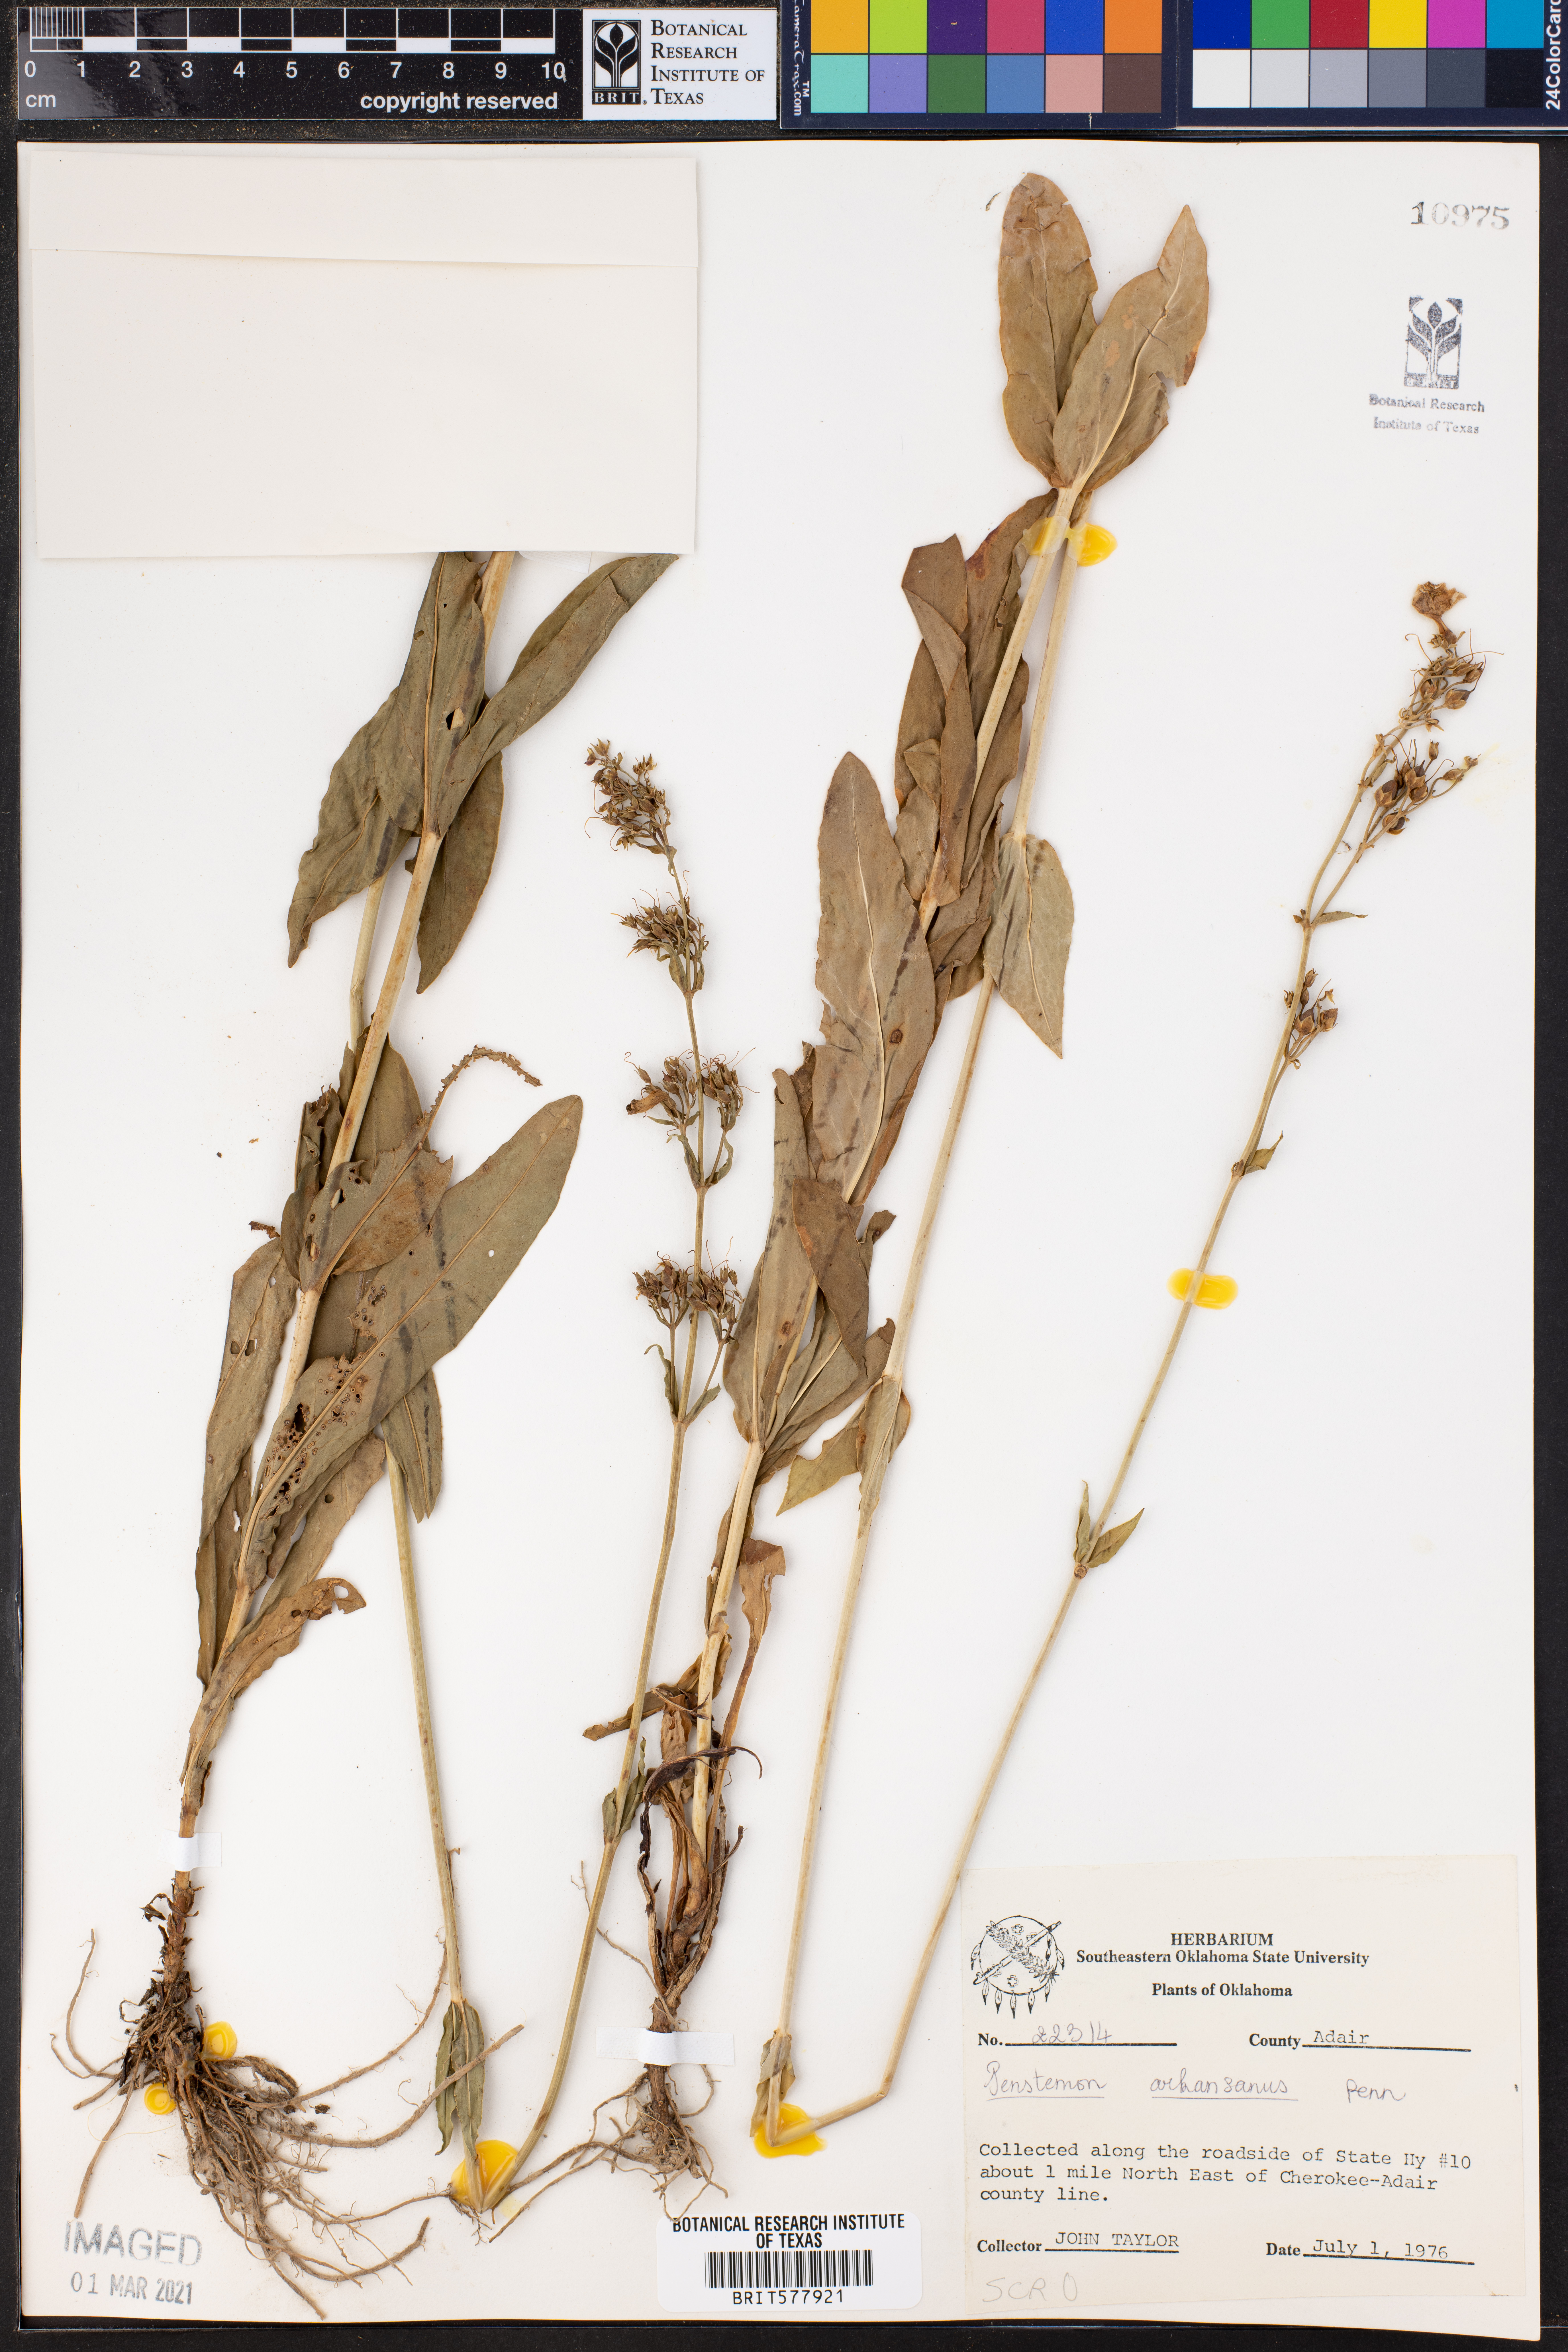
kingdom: Plantae
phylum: Tracheophyta
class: Magnoliopsida
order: Lamiales
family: Plantaginaceae
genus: Penstemon
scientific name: Penstemon arkansanus
